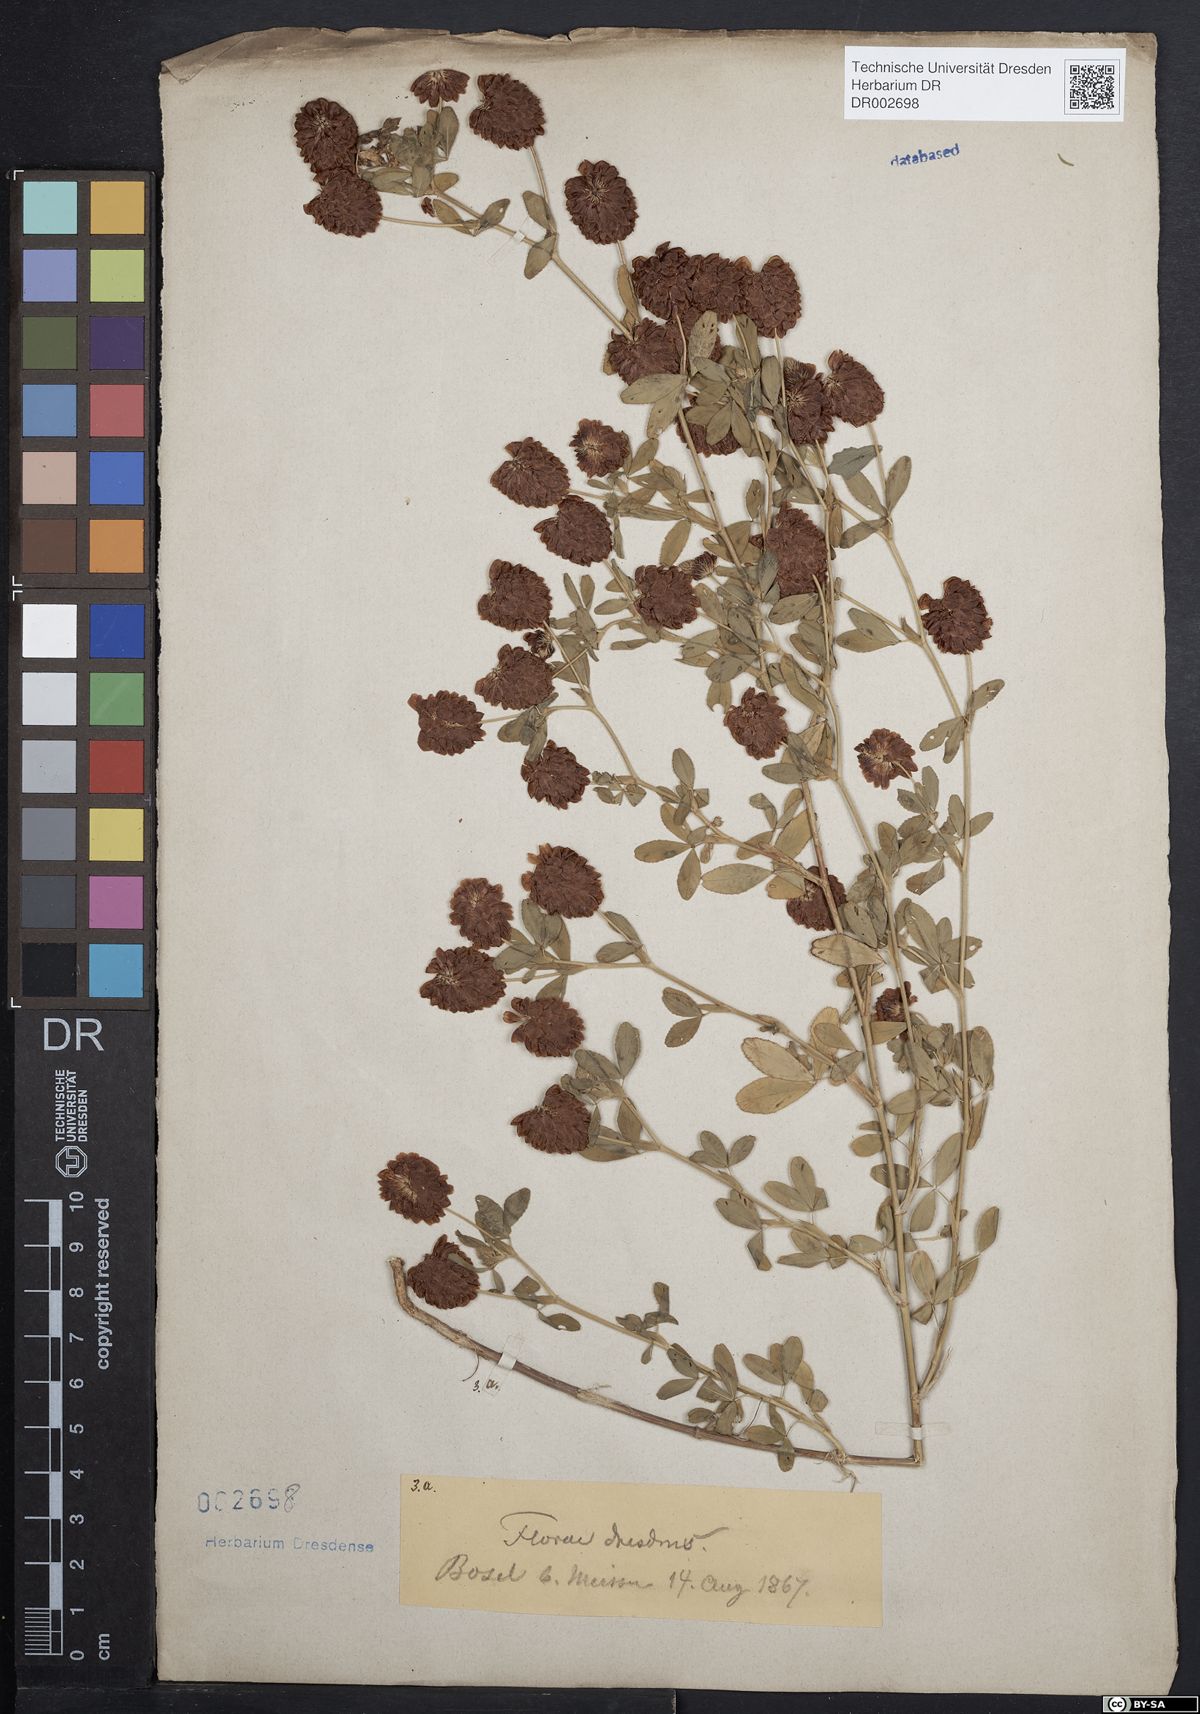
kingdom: Plantae
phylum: Tracheophyta
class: Magnoliopsida
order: Fabales
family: Fabaceae
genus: Trifolium
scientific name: Trifolium aureum
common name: Golden clover
